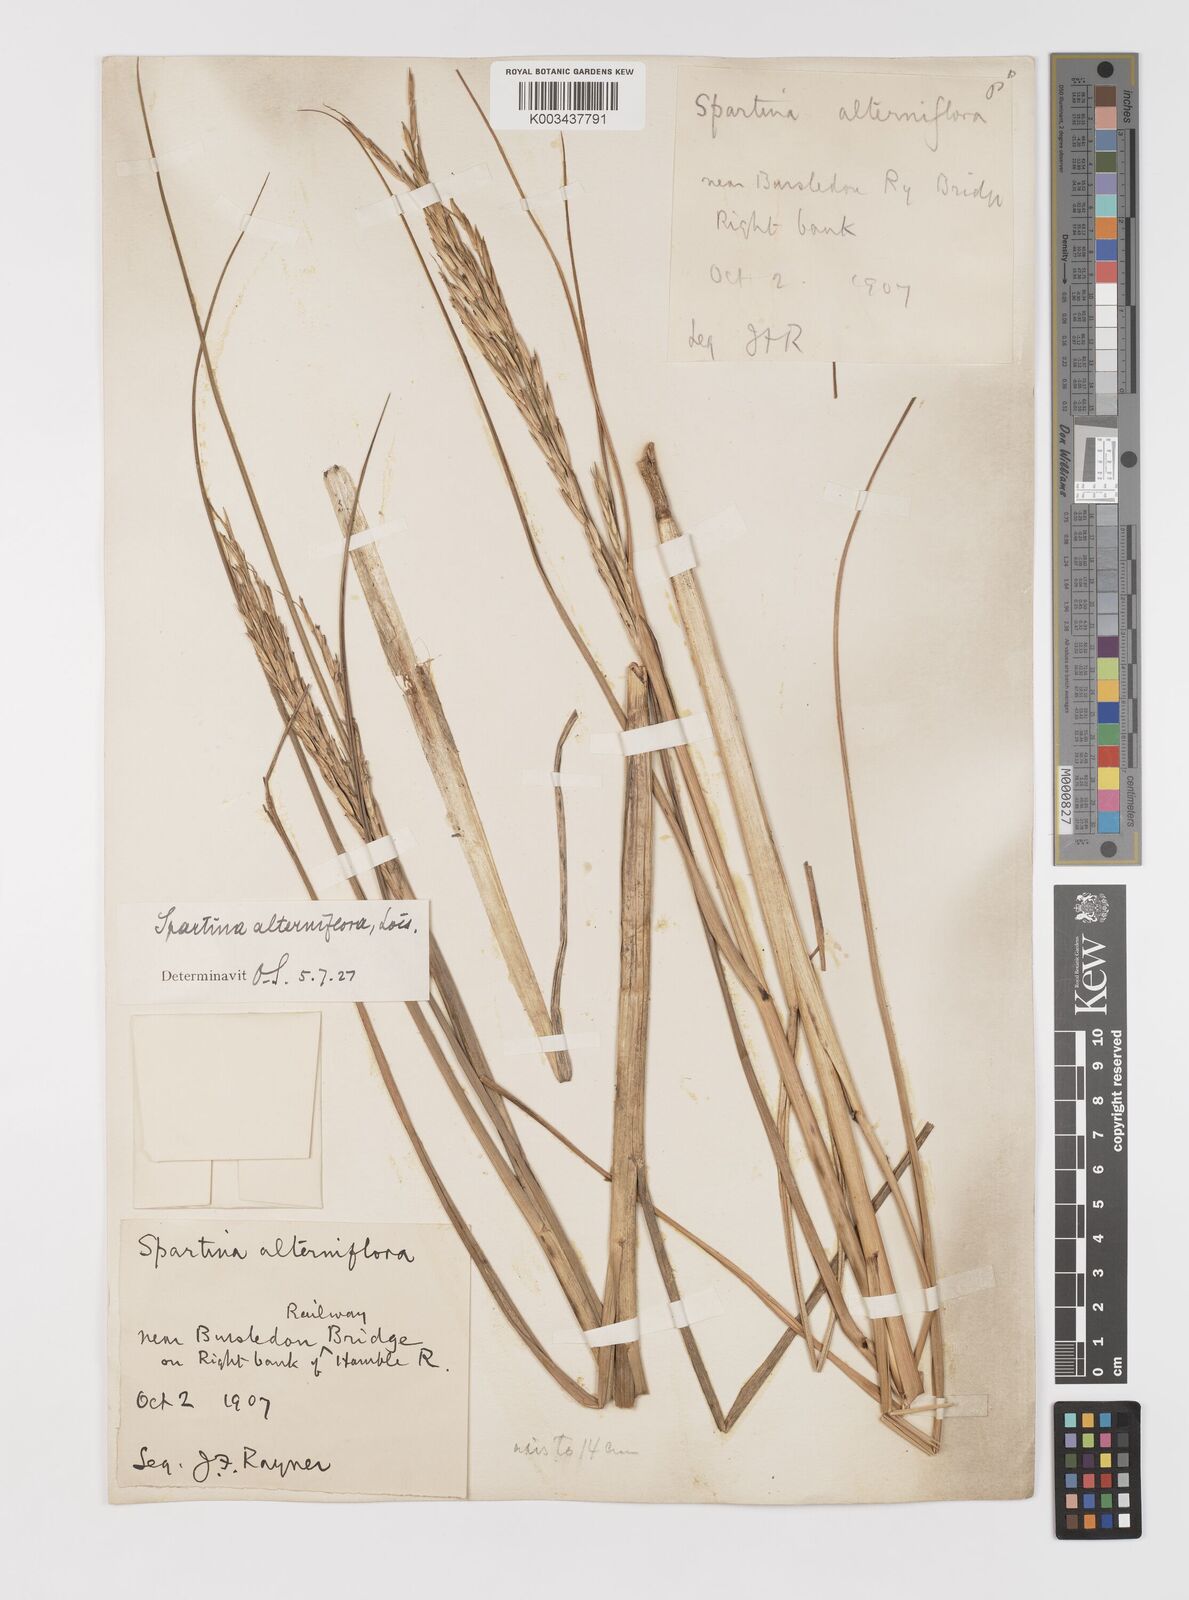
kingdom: Plantae
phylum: Tracheophyta
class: Liliopsida
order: Poales
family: Poaceae
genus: Sporobolus
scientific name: Sporobolus alterniflorus
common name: Atlantic cordgrass
